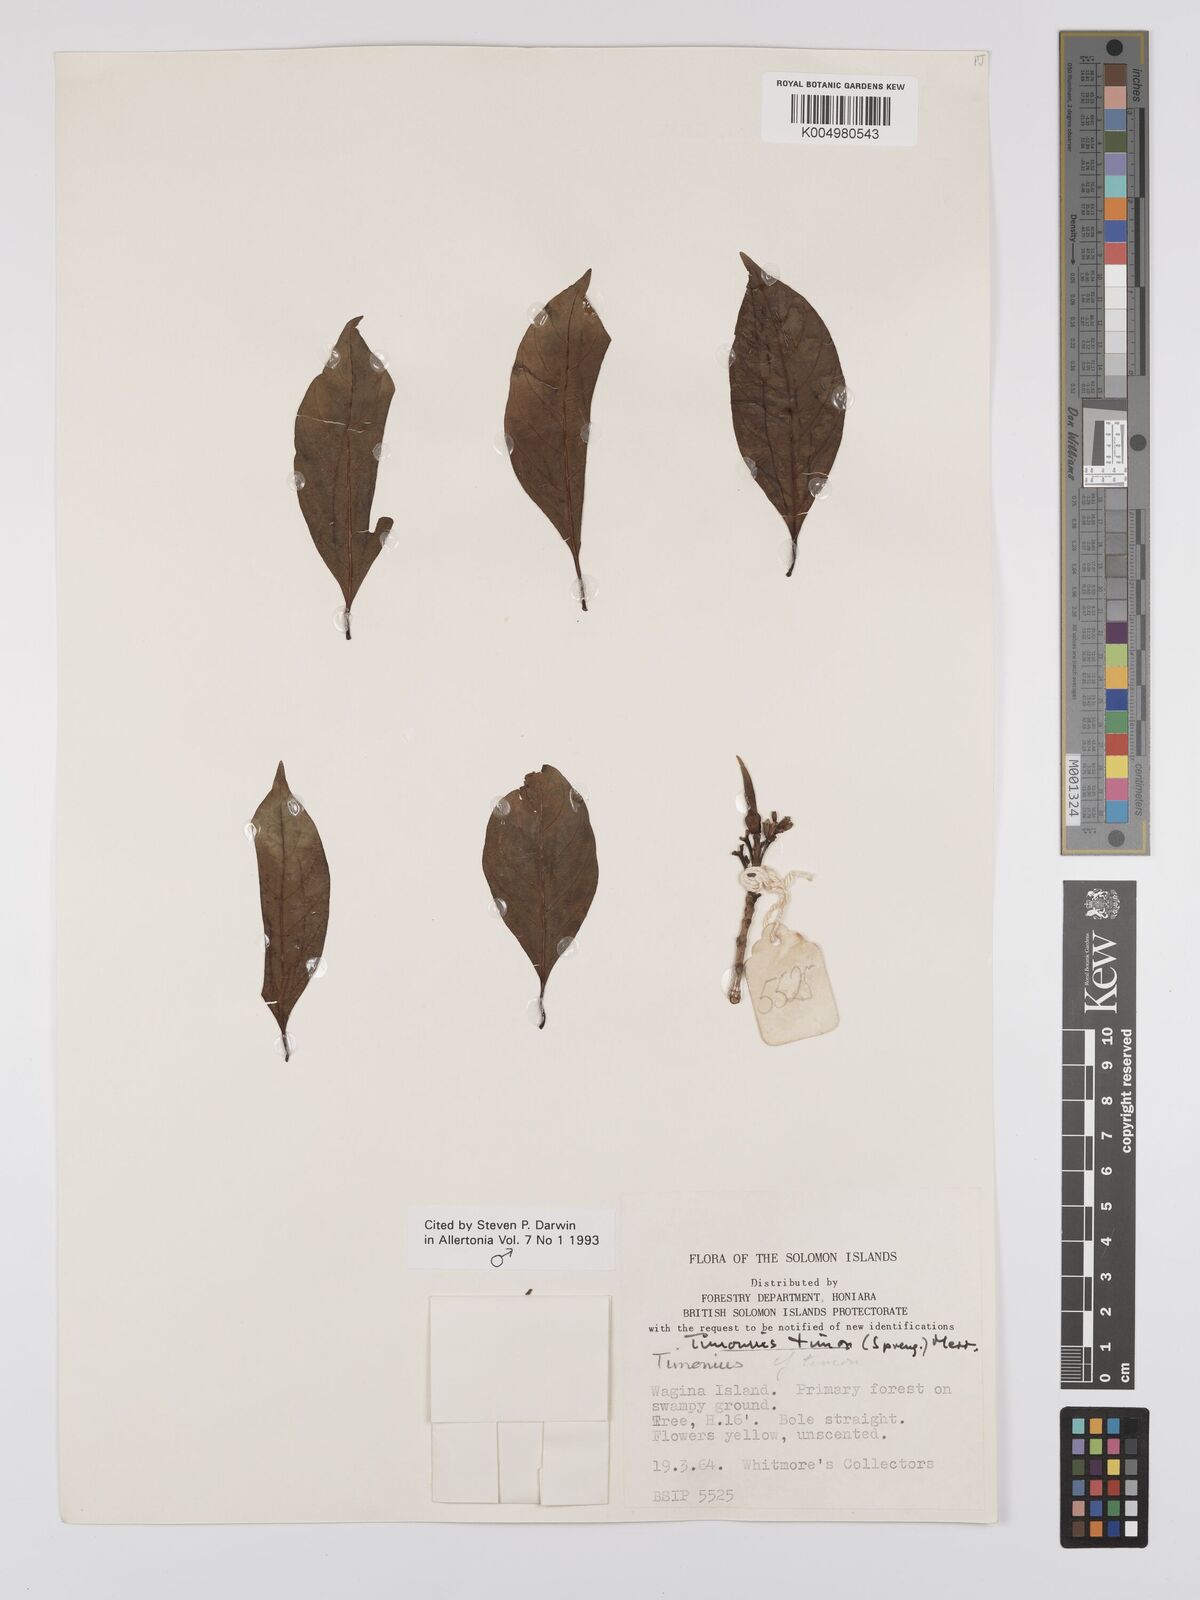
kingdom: Plantae
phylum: Tracheophyta
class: Magnoliopsida
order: Gentianales
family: Rubiaceae
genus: Timonius
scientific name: Timonius timon
